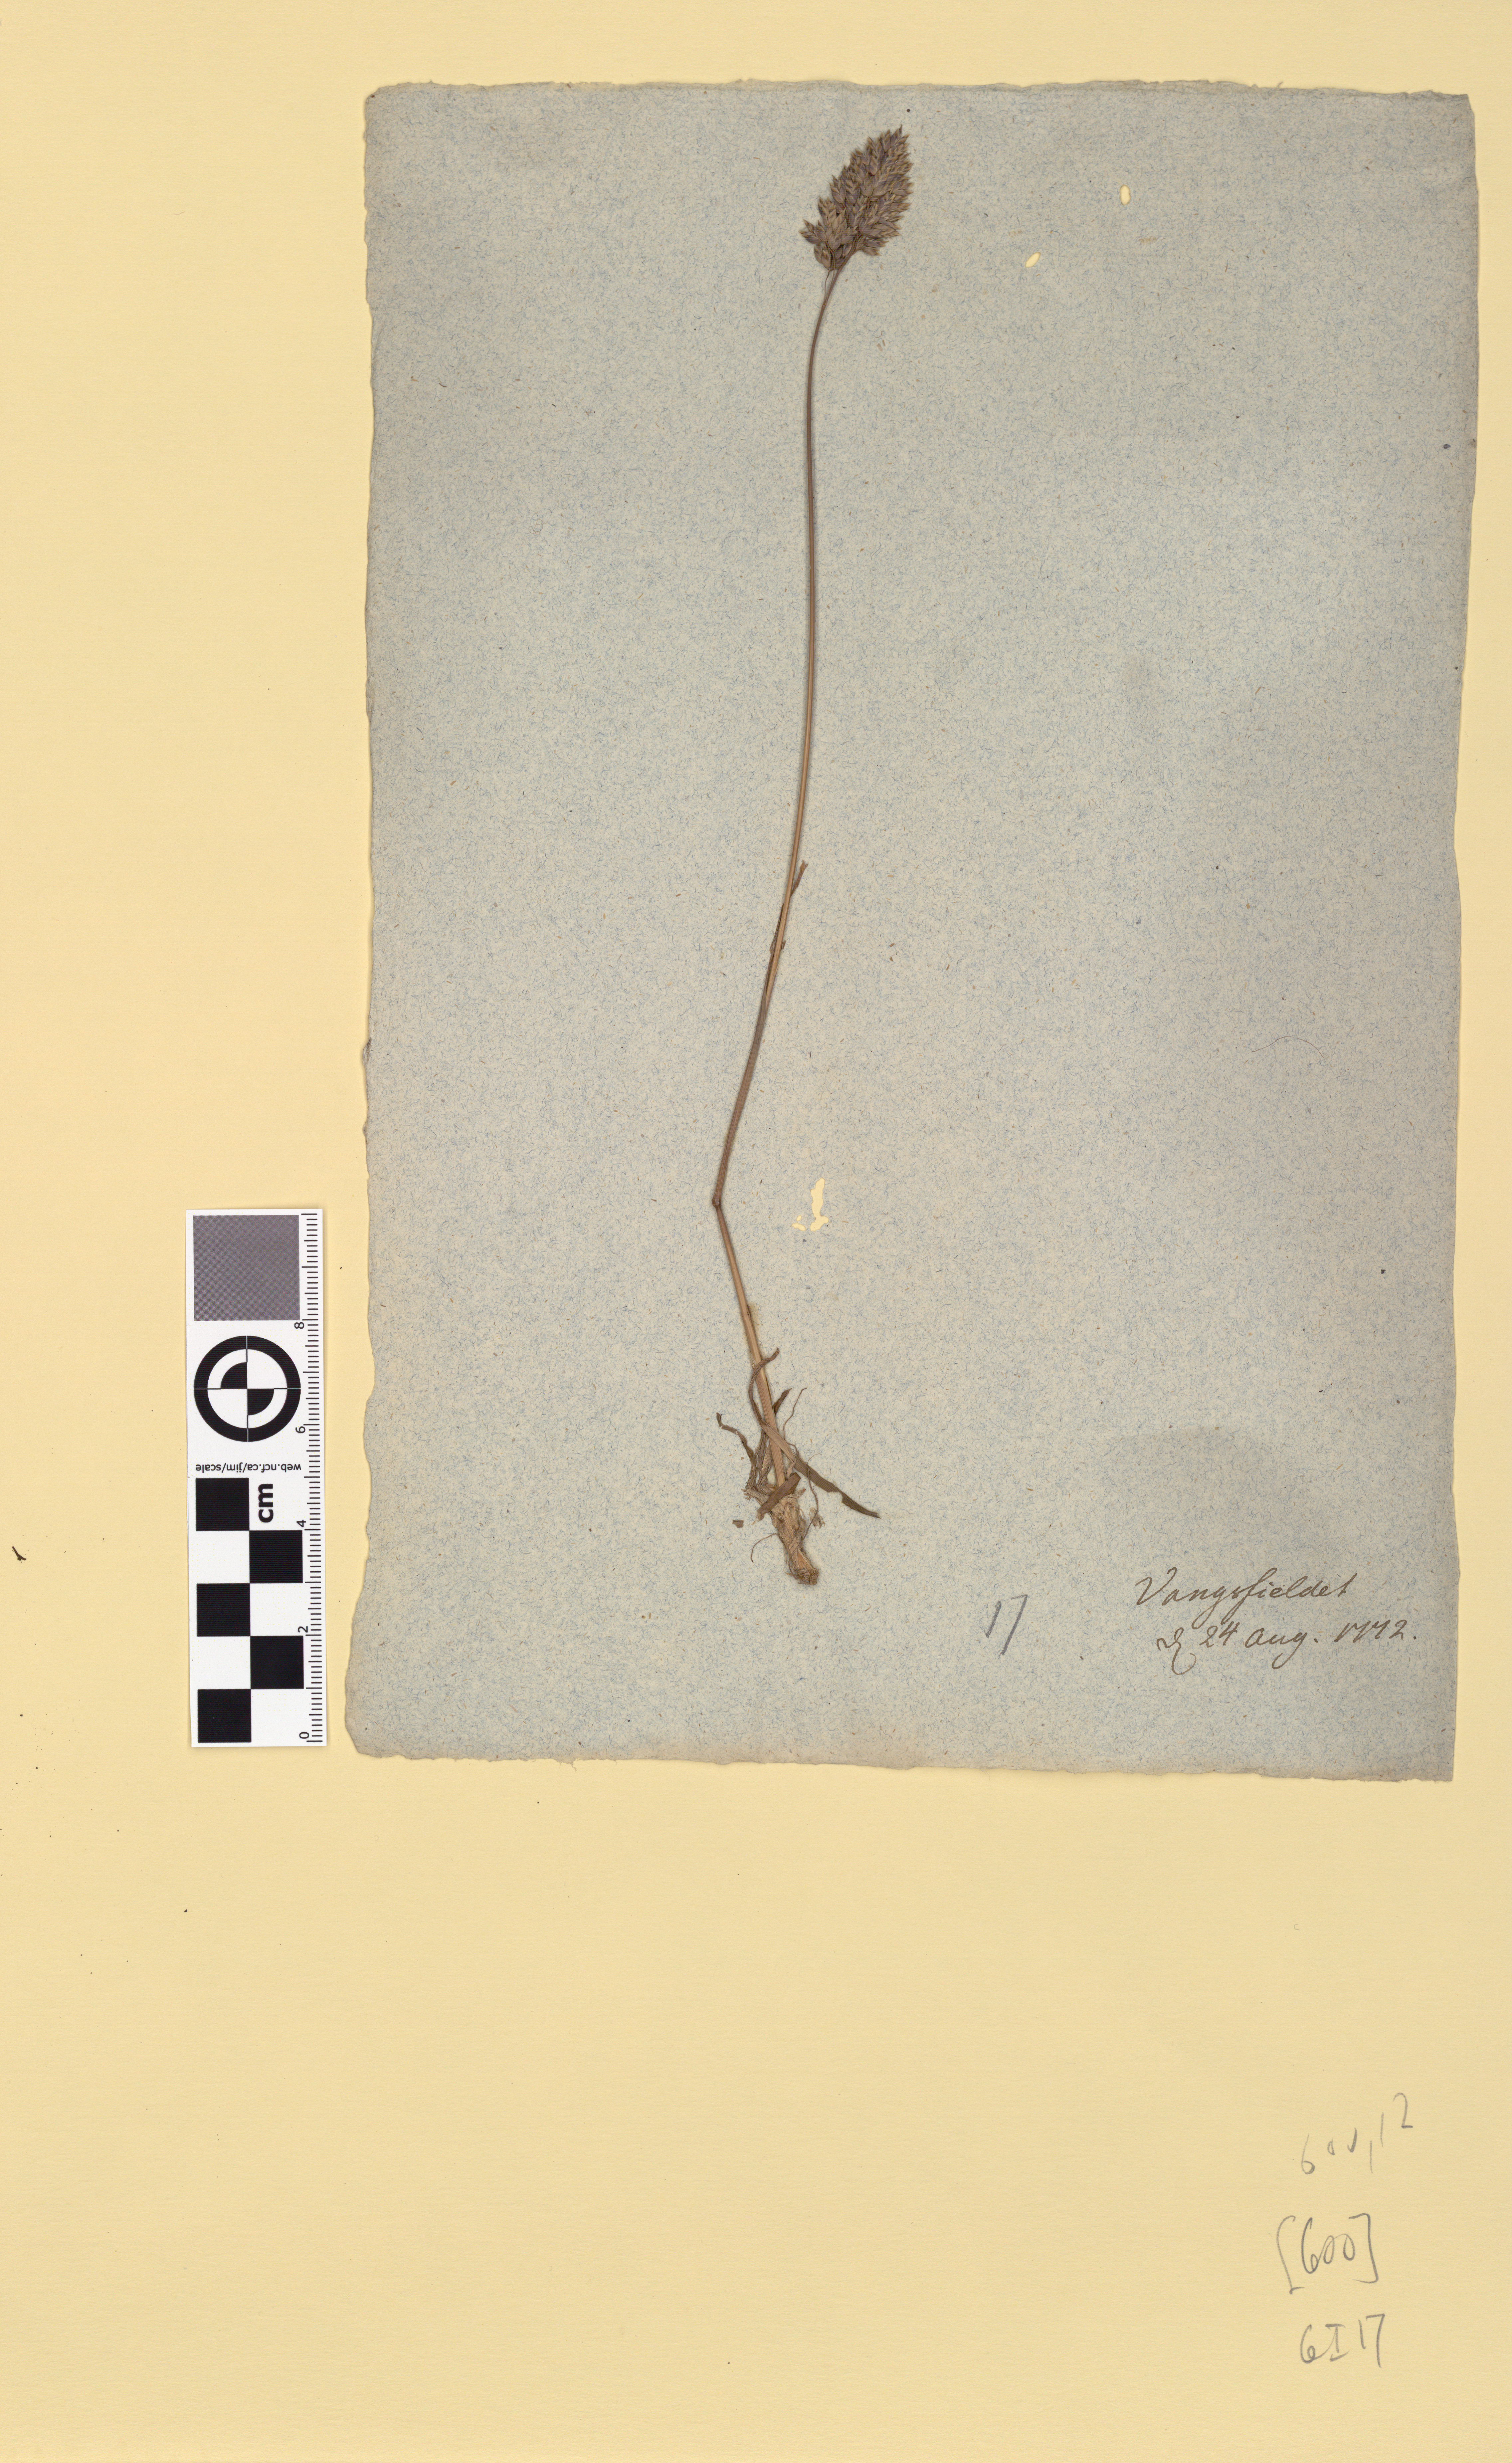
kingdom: Plantae
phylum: Tracheophyta
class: Liliopsida
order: Poales
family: Poaceae
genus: Poa
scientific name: Poa alpina
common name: Alpine bluegrass
